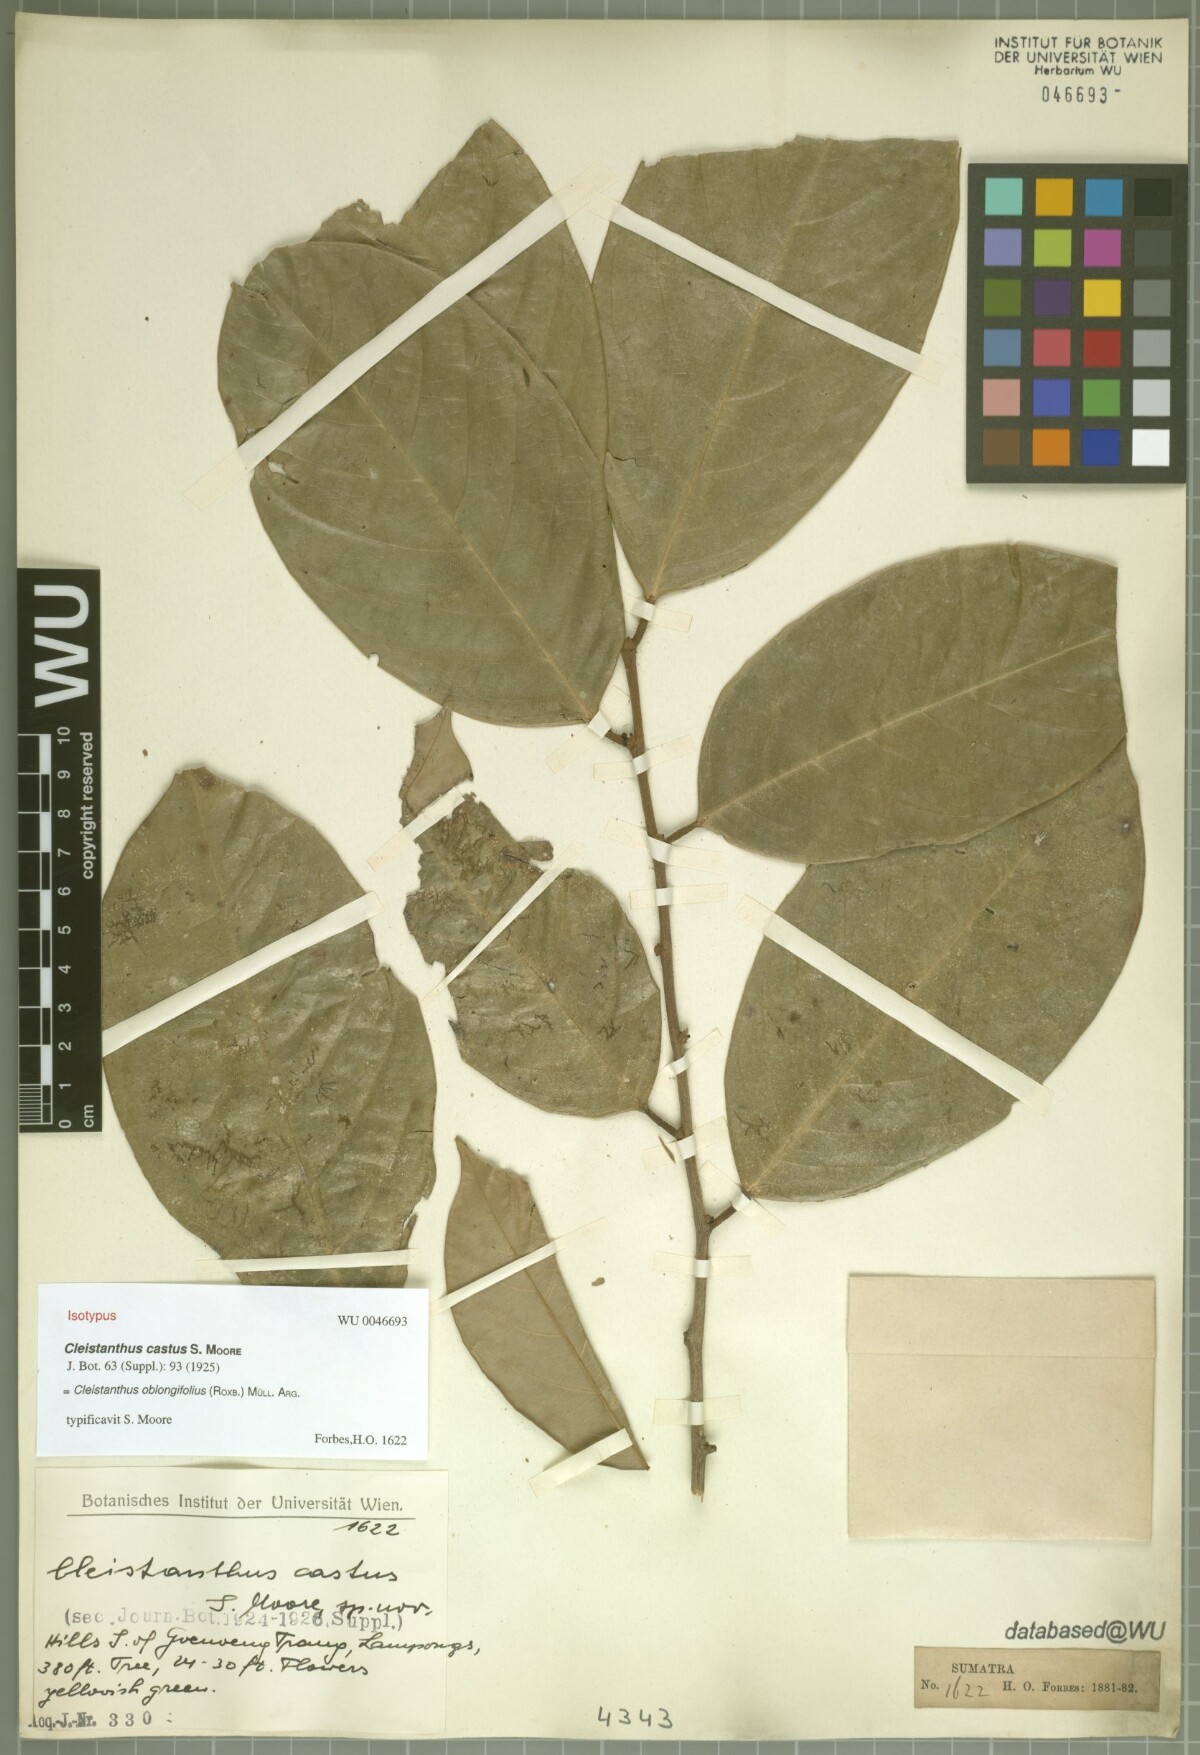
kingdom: Plantae
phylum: Tracheophyta
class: Magnoliopsida
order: Malpighiales
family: Phyllanthaceae
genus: Cleistanthus
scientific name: Cleistanthus oblongifolius
